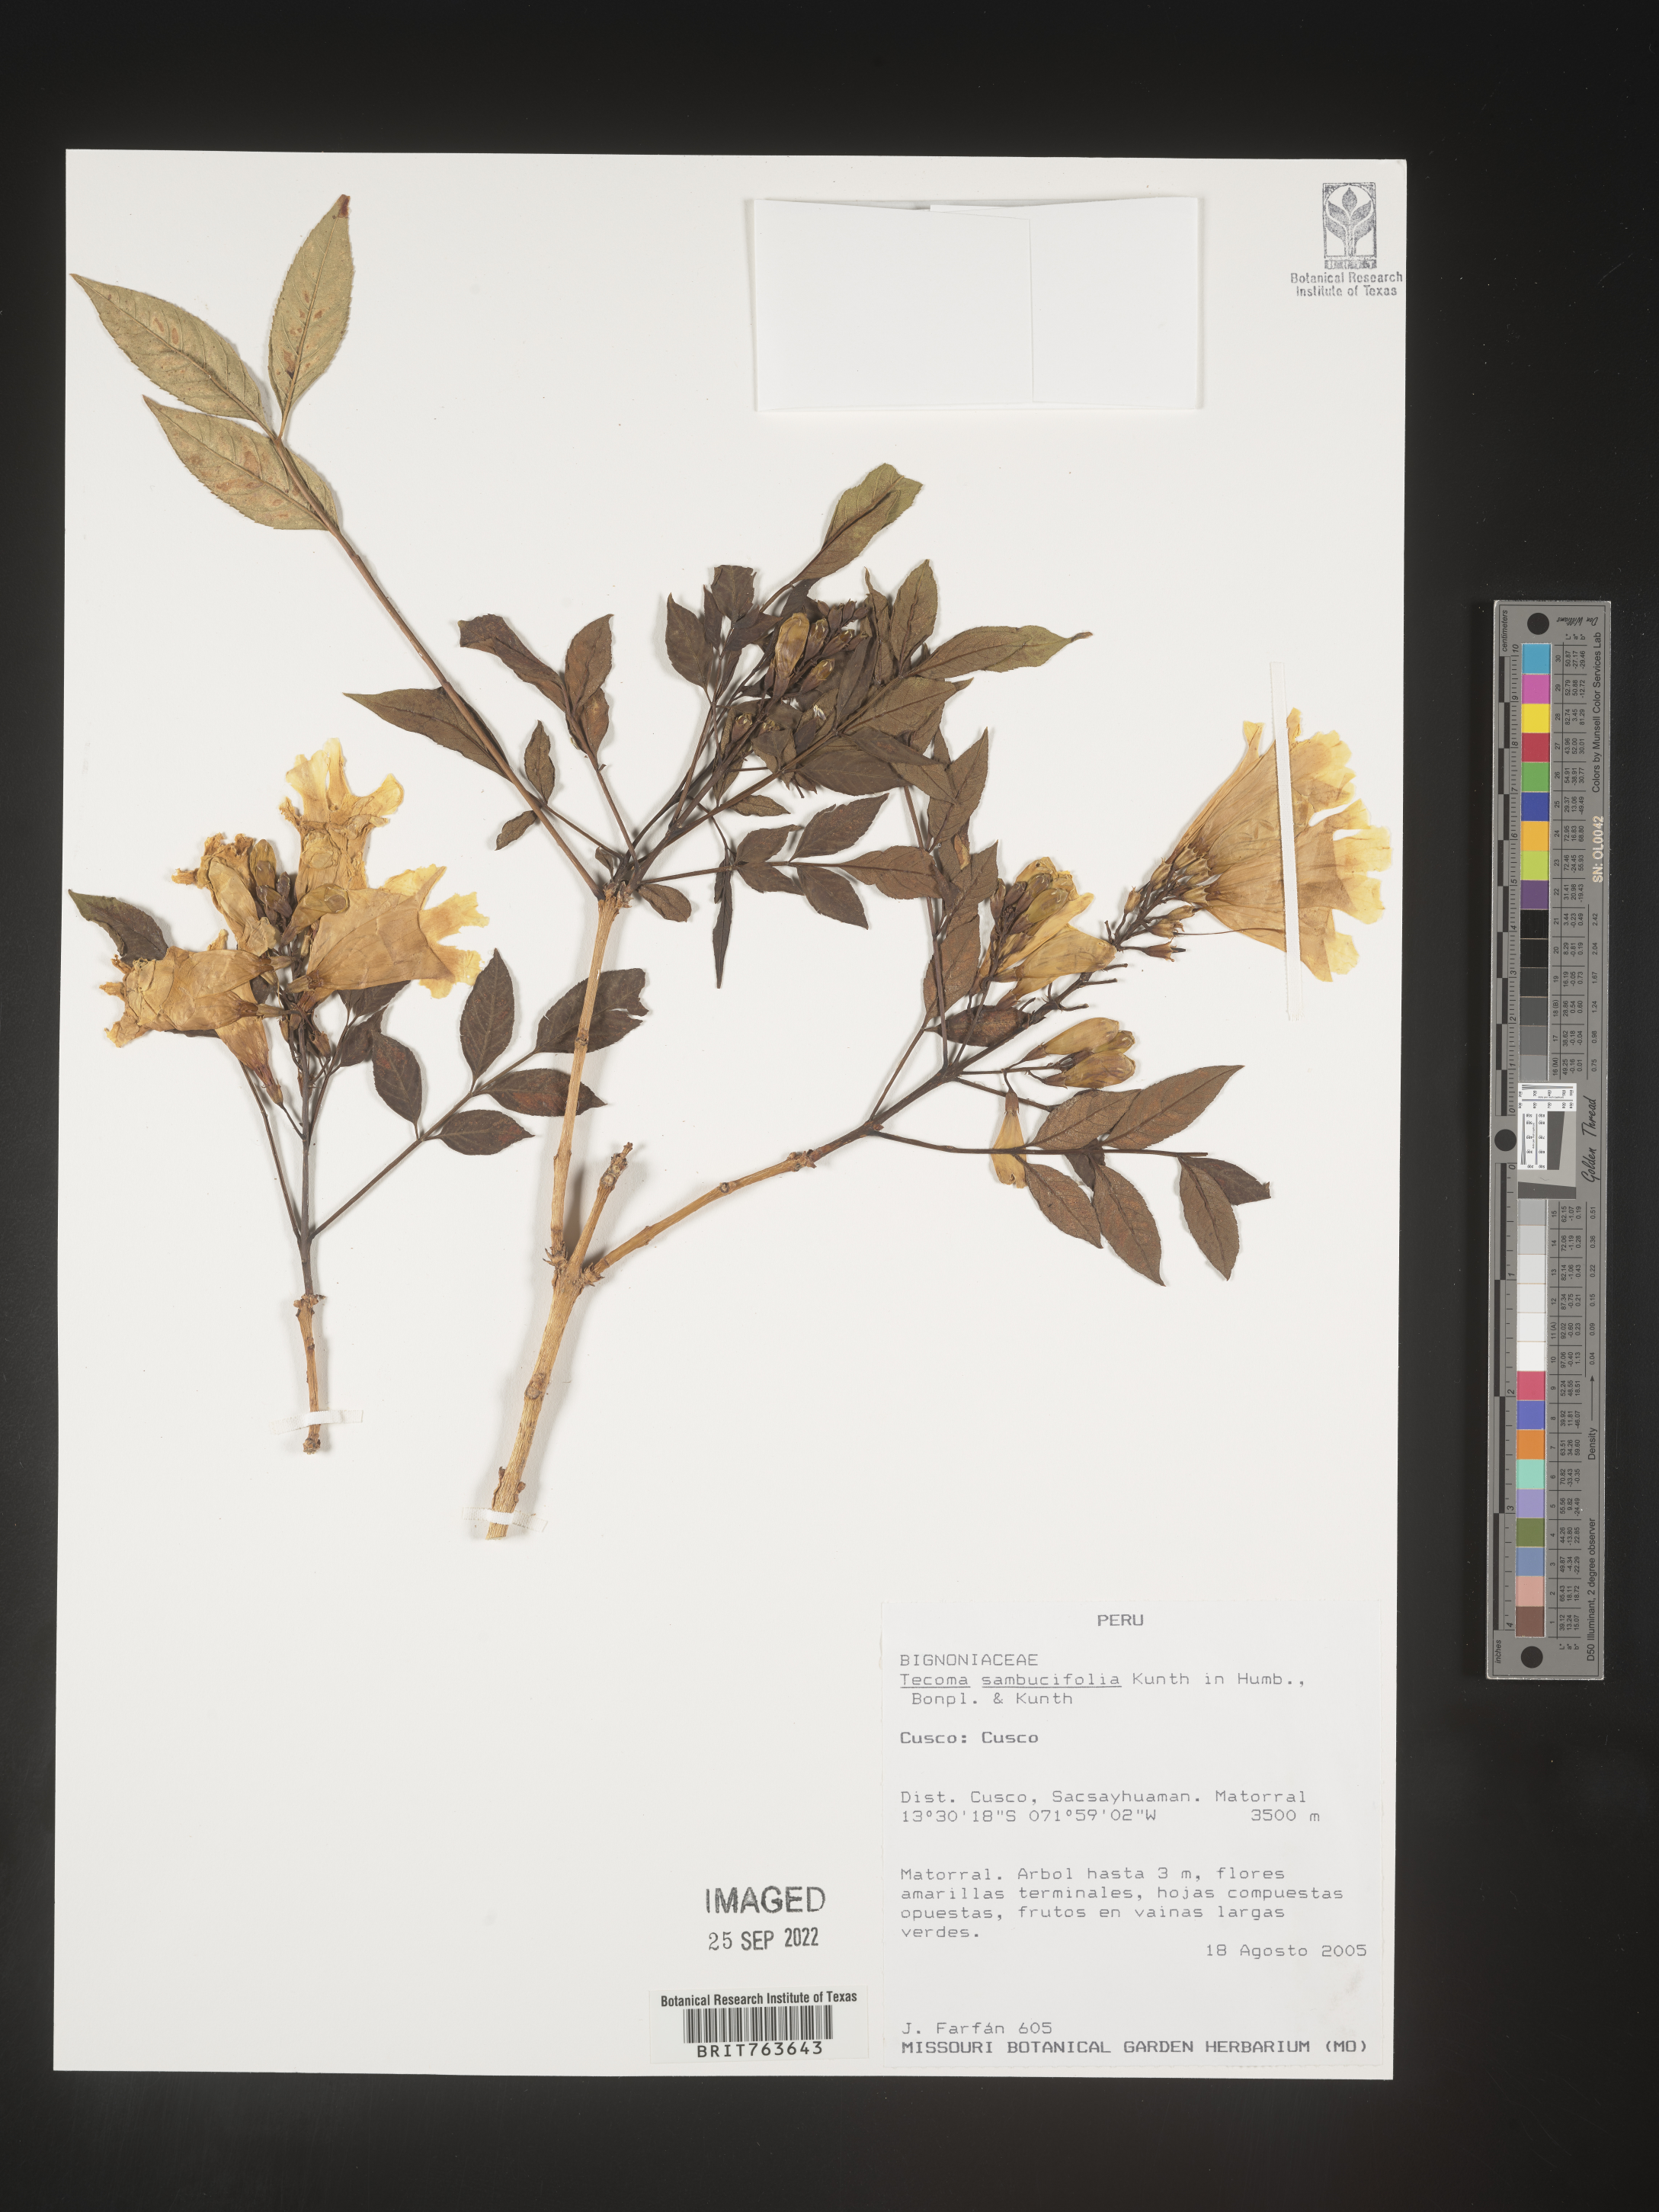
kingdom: Plantae
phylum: Tracheophyta
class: Magnoliopsida
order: Lamiales
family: Bignoniaceae
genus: Tecoma
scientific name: Tecoma
